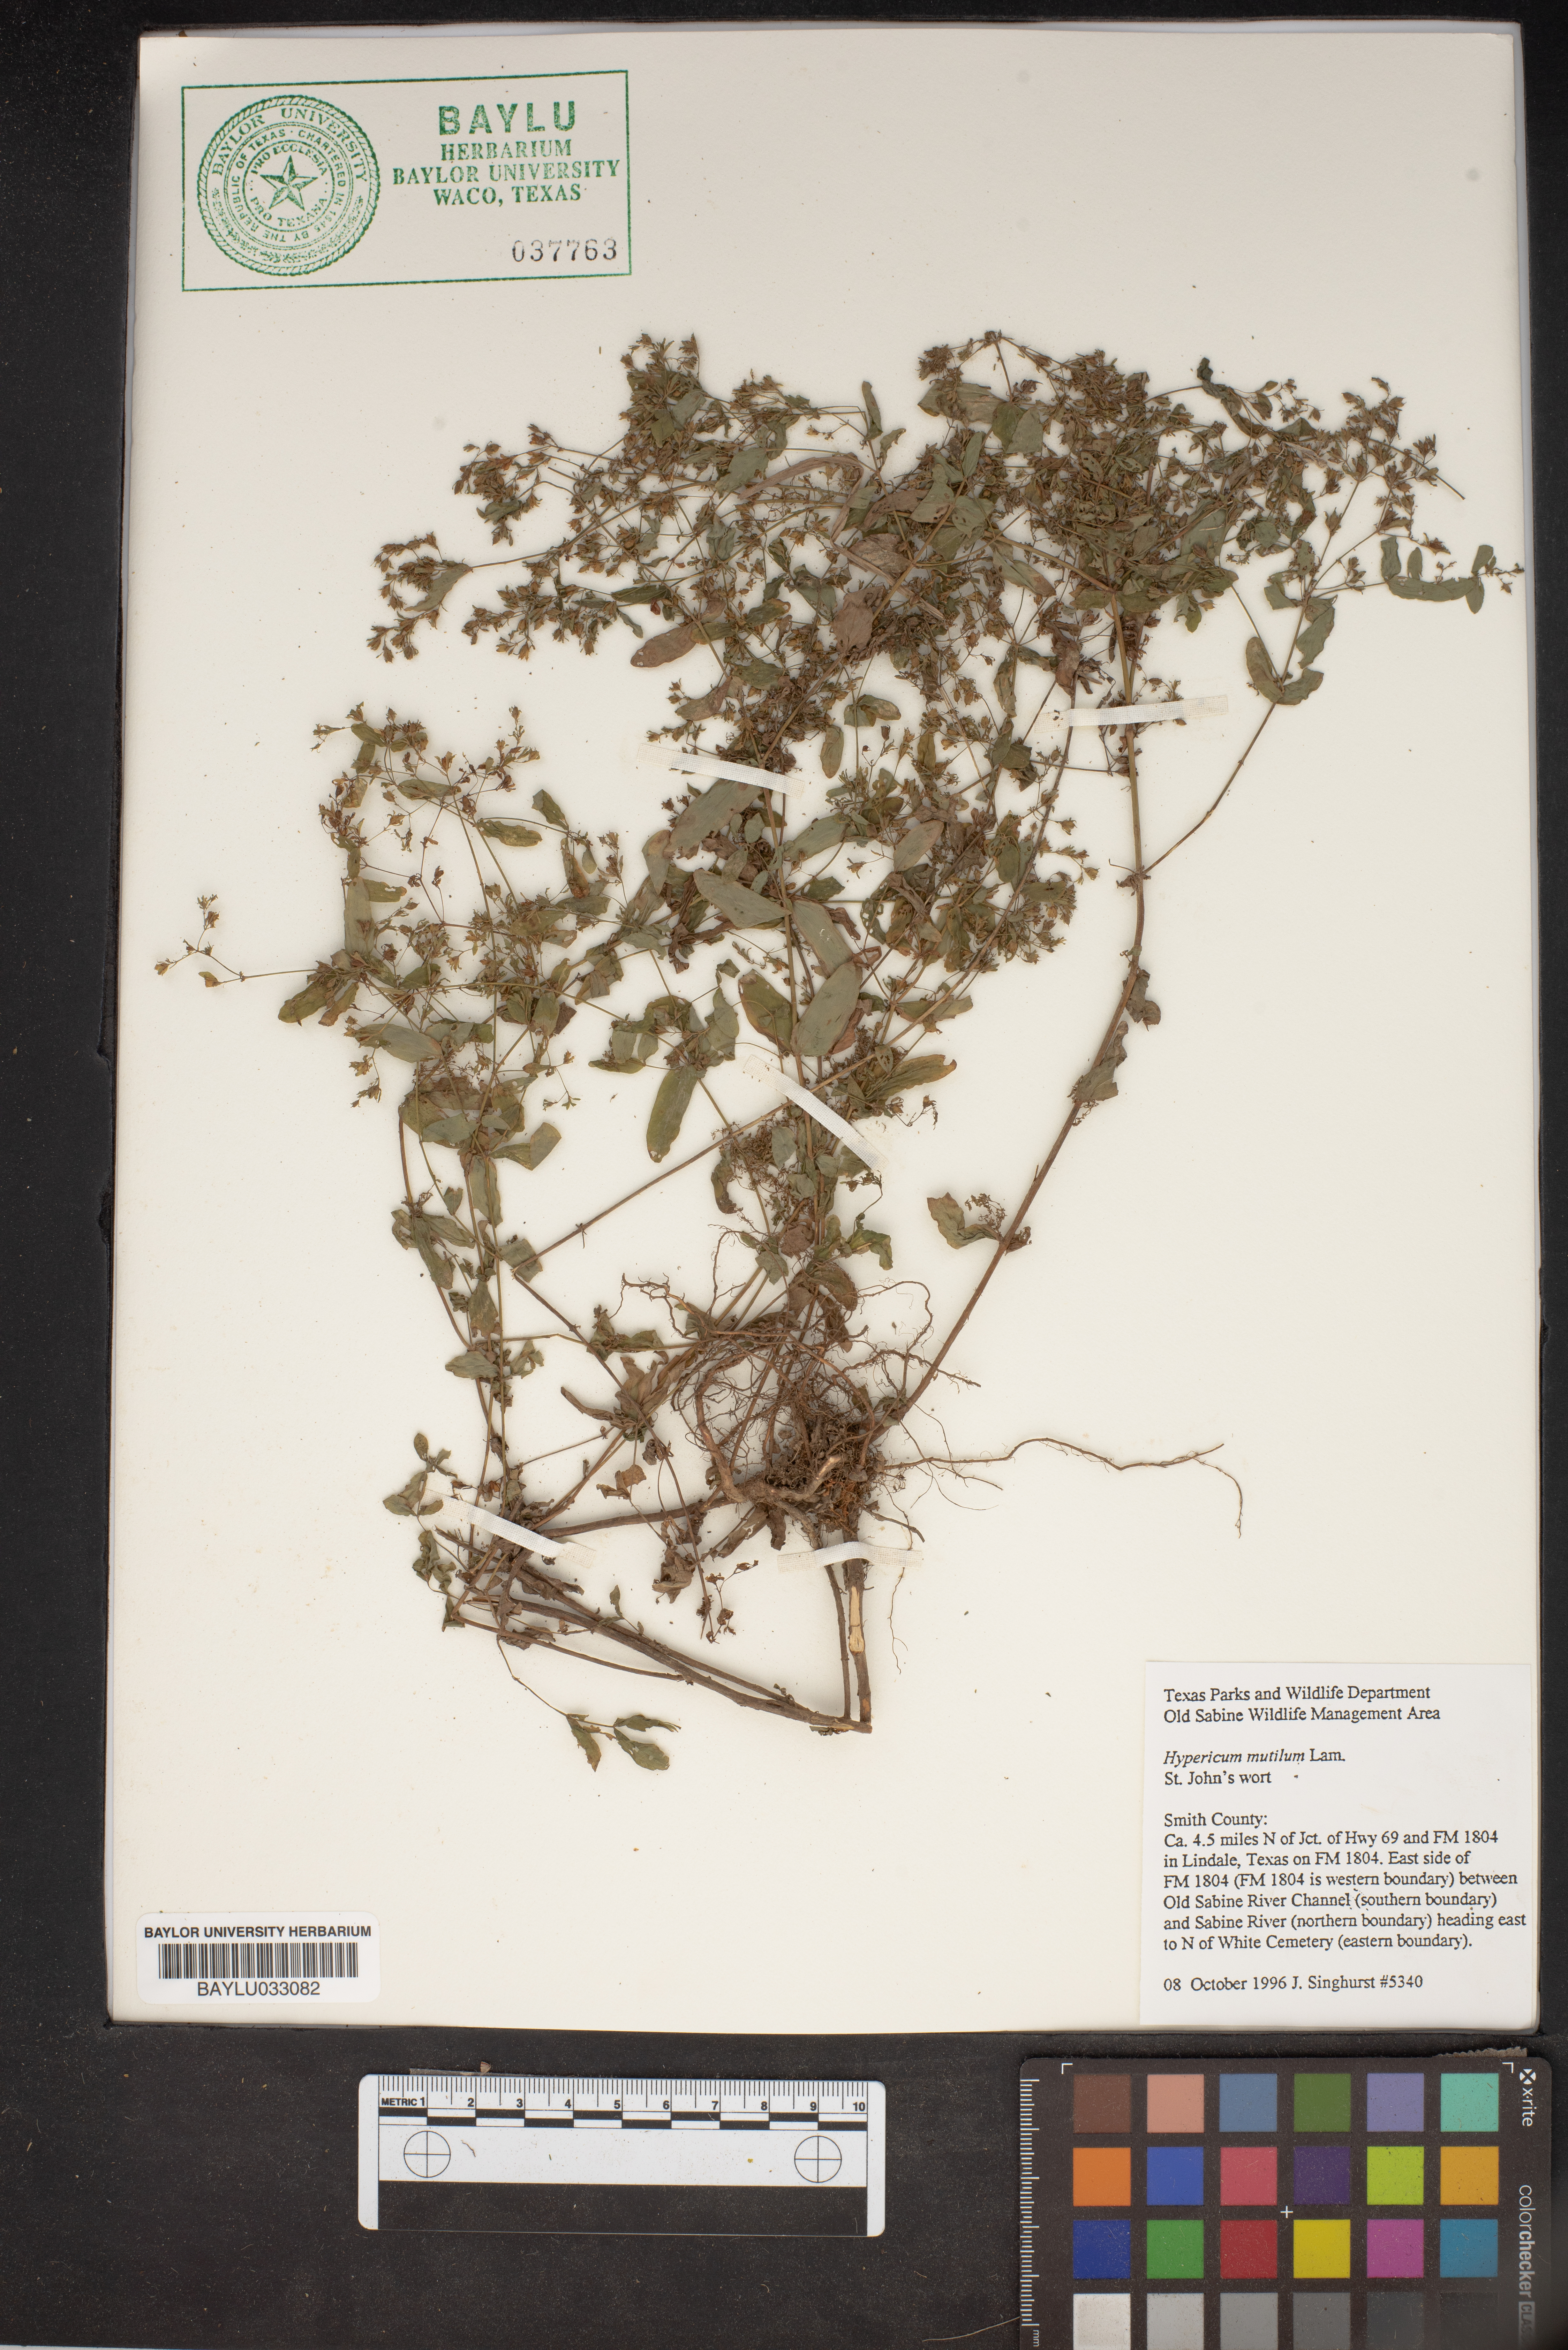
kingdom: Plantae
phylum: Tracheophyta
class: Magnoliopsida
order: Malpighiales
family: Hypericaceae
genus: Hypericum
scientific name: Hypericum mutilum
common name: Dwarf st. john's-wort
